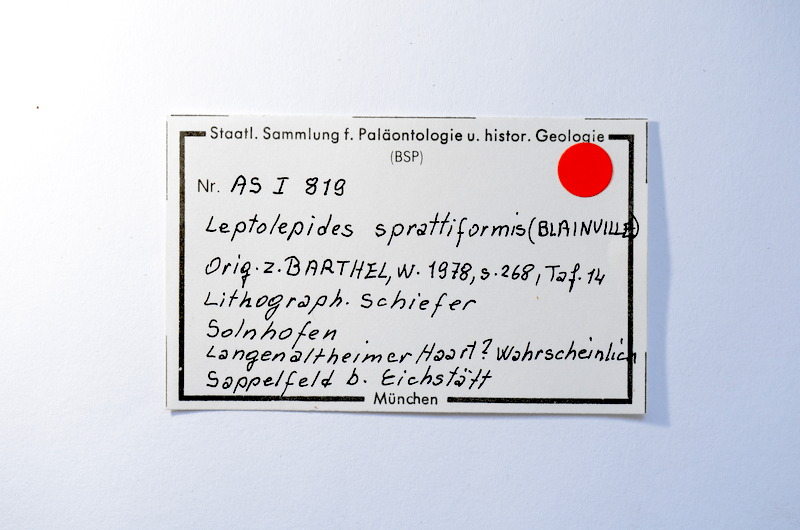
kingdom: Animalia
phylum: Chordata
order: Salmoniformes
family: Orthogonikleithridae
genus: Leptolepides
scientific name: Leptolepides sprattiformis
